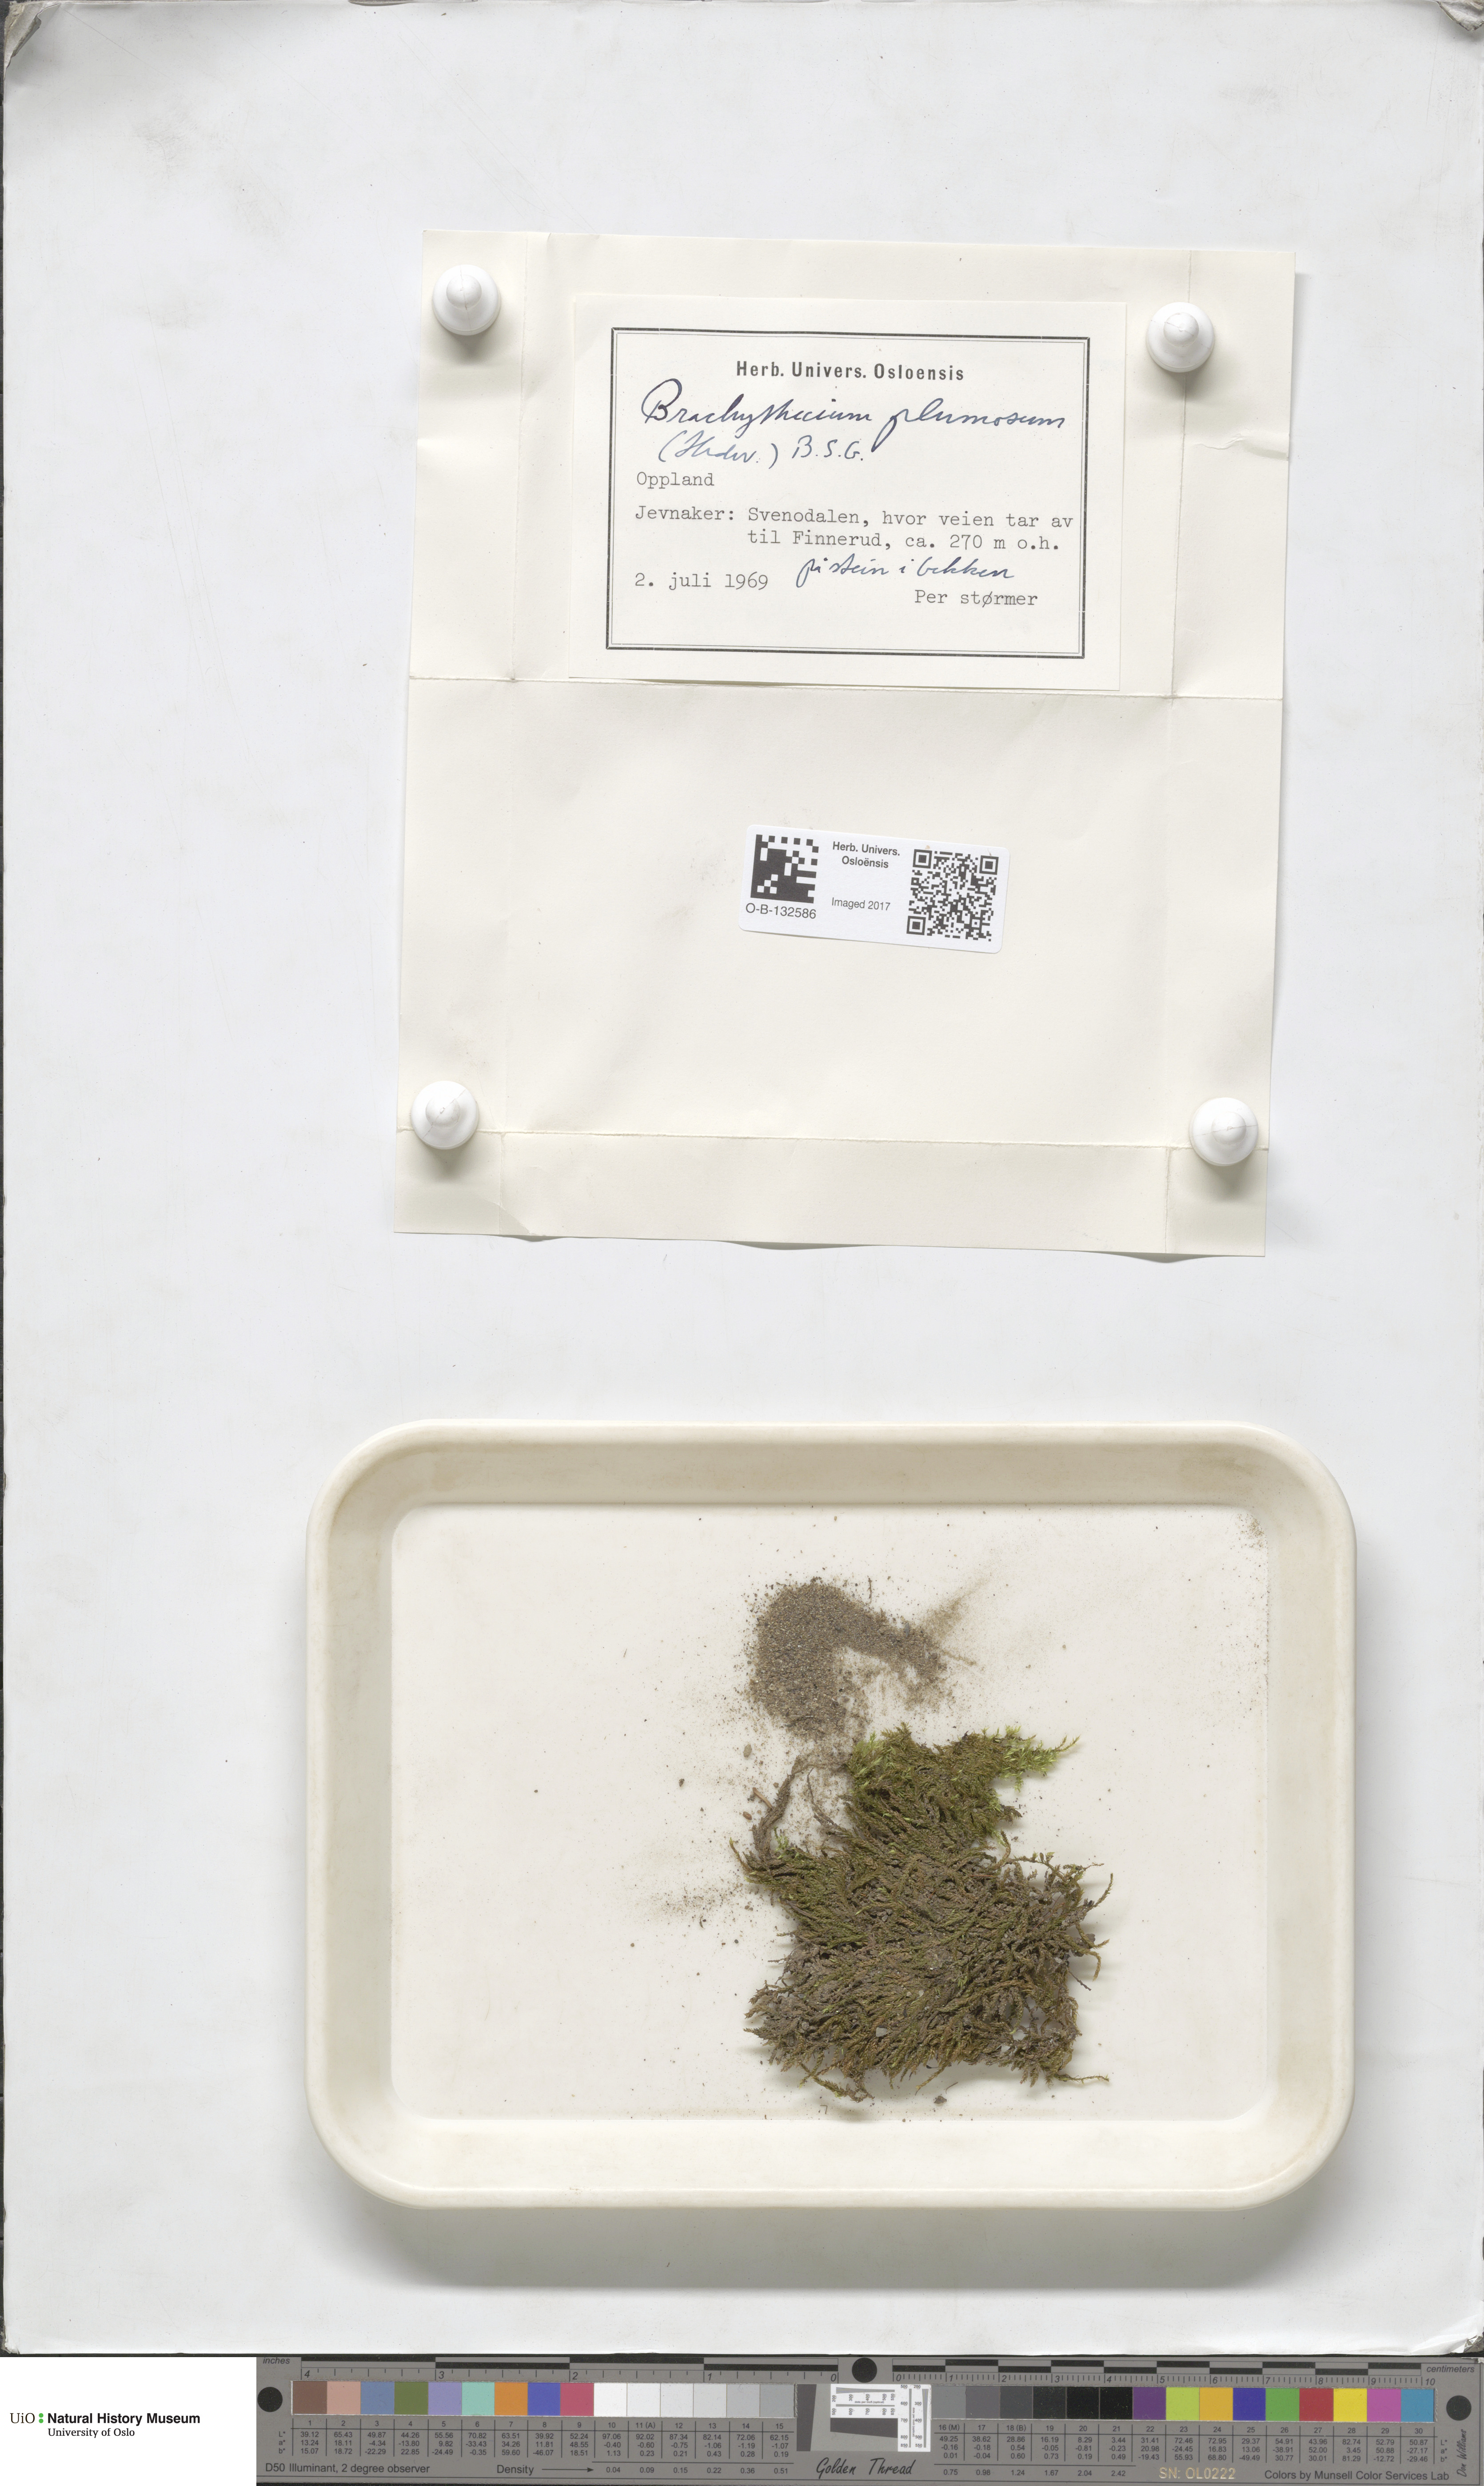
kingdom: Plantae
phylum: Bryophyta
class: Bryopsida
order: Hypnales
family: Brachytheciaceae
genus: Sciuro-hypnum
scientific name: Sciuro-hypnum plumosum
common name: Rusty feather-moss
